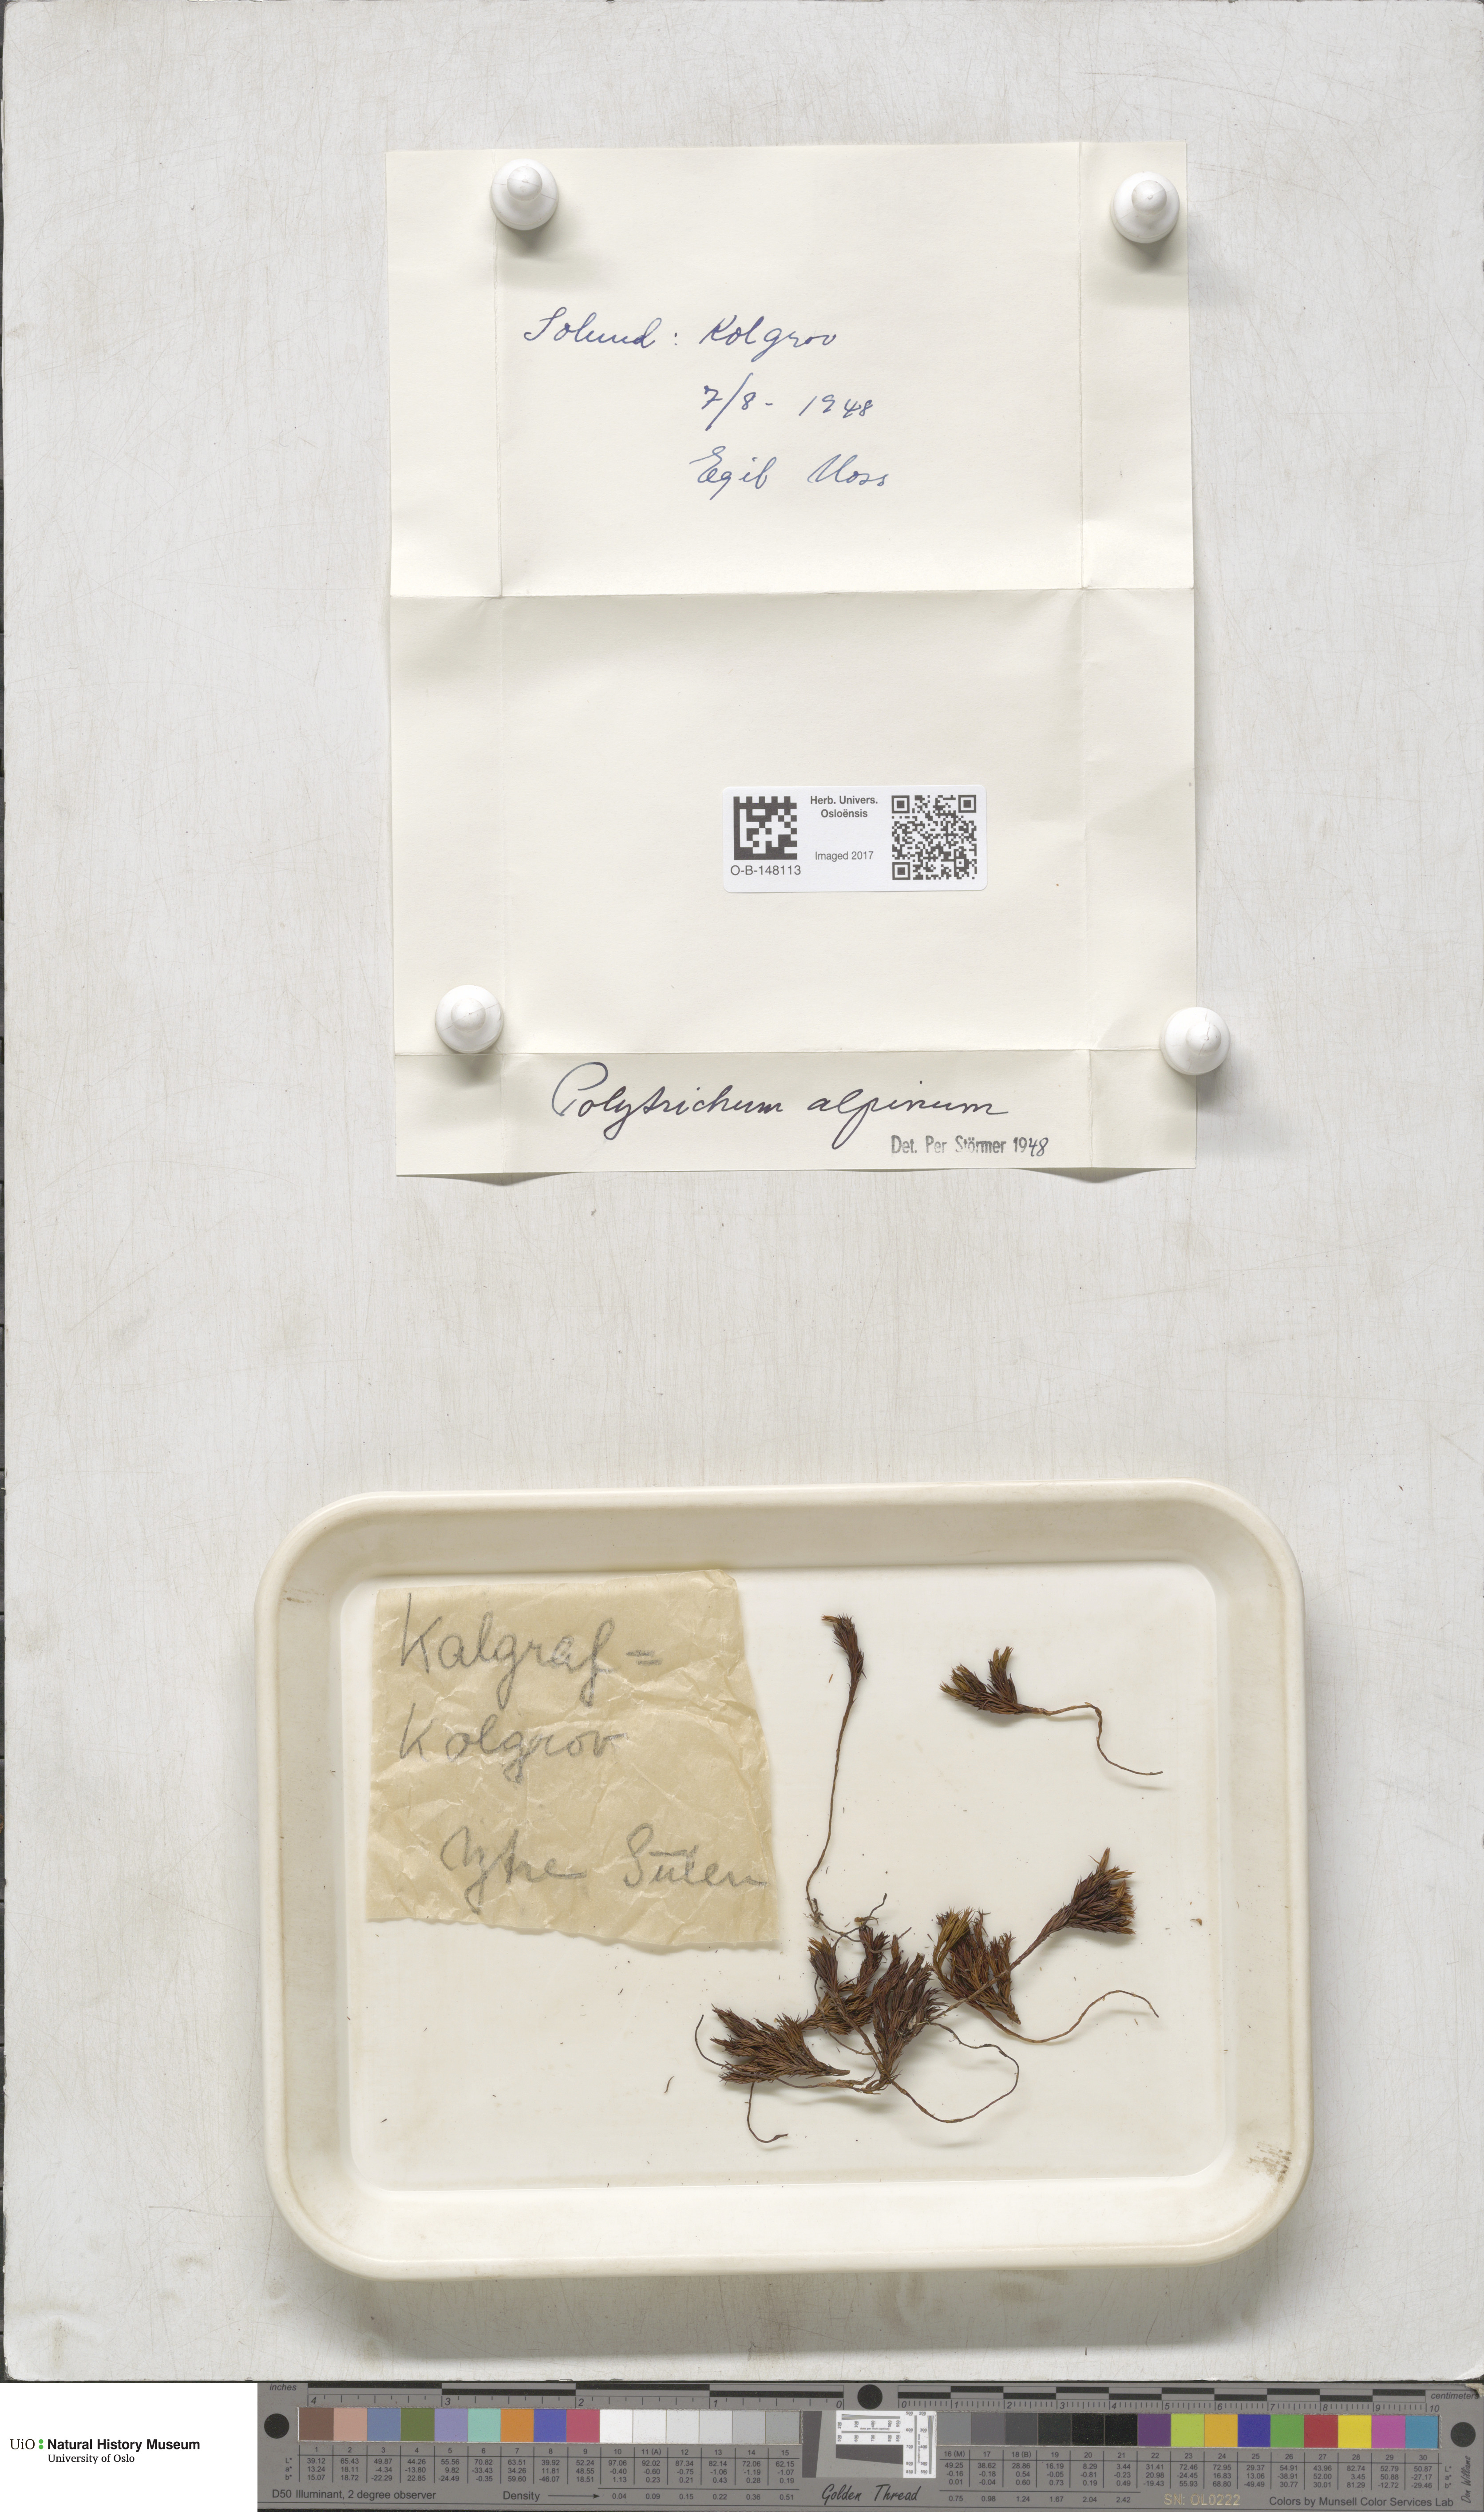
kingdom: Plantae
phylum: Bryophyta
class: Polytrichopsida
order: Polytrichales
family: Polytrichaceae
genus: Polytrichastrum
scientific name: Polytrichastrum alpinum
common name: Alpine haircap
